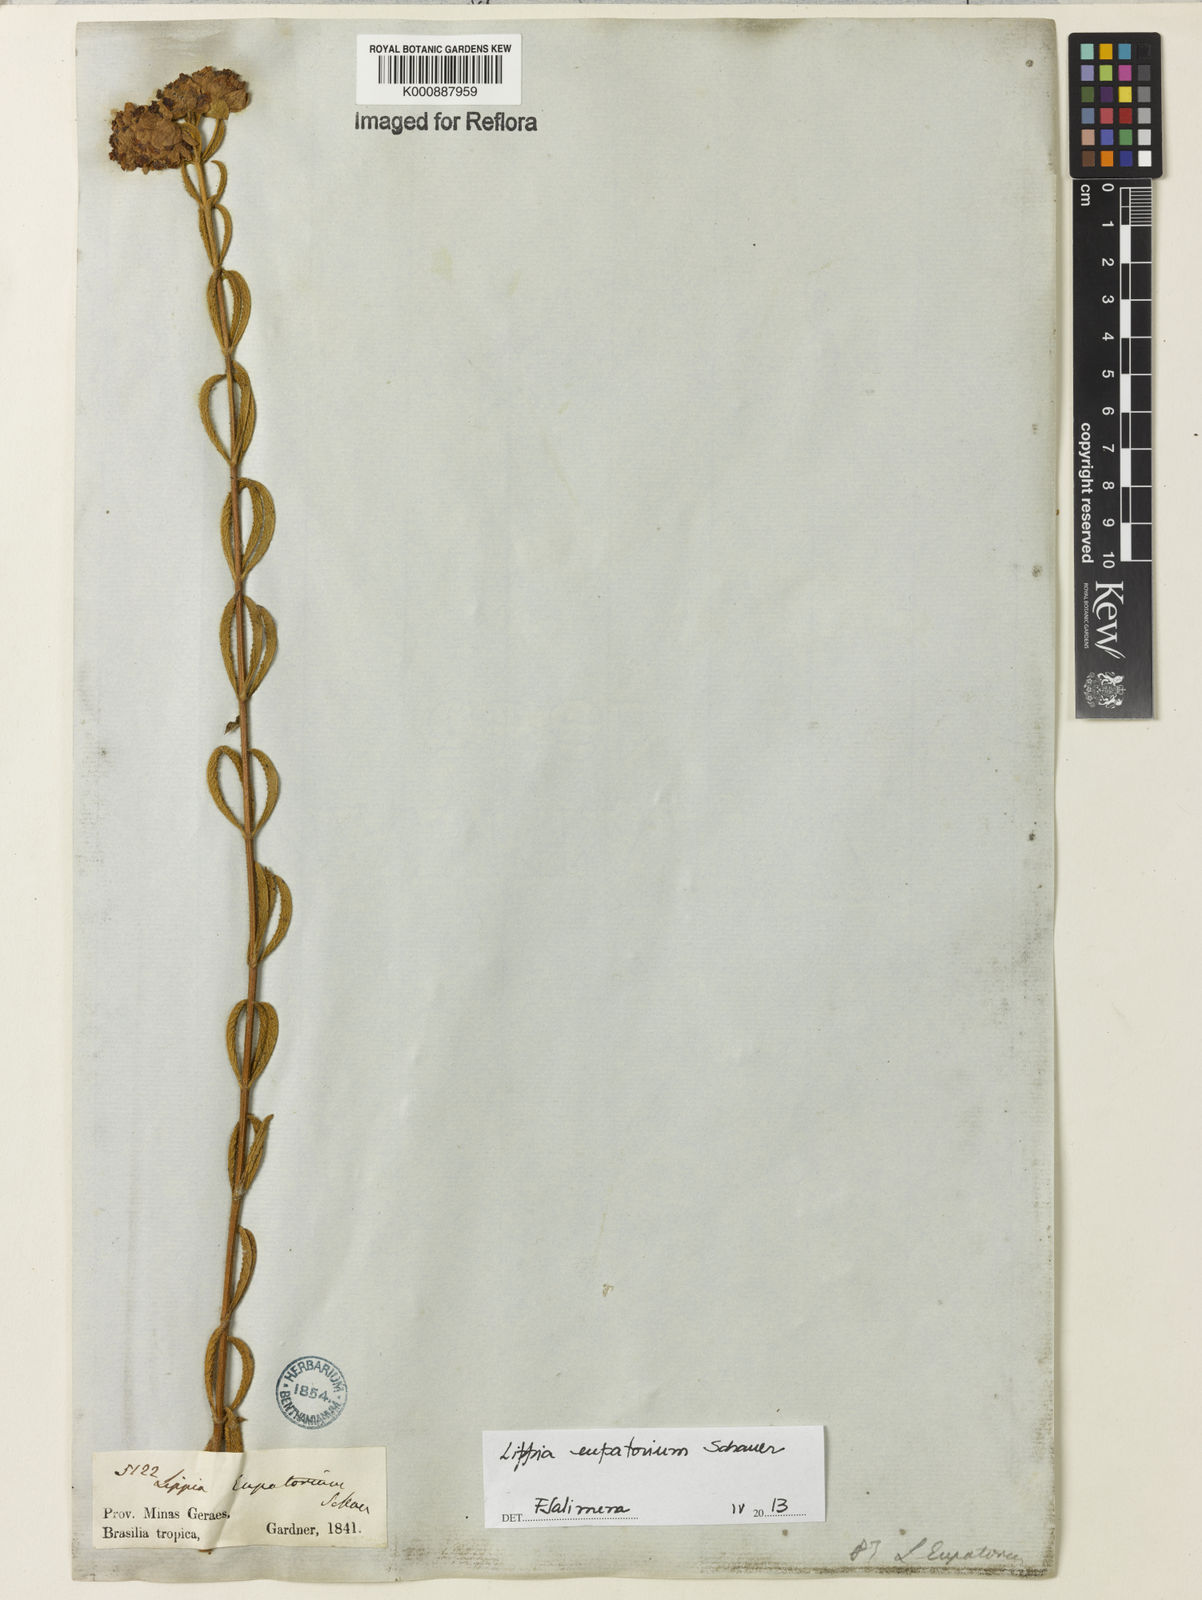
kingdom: Plantae
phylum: Tracheophyta
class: Magnoliopsida
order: Lamiales
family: Verbenaceae
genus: Lippia
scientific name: Lippia eupatorium
